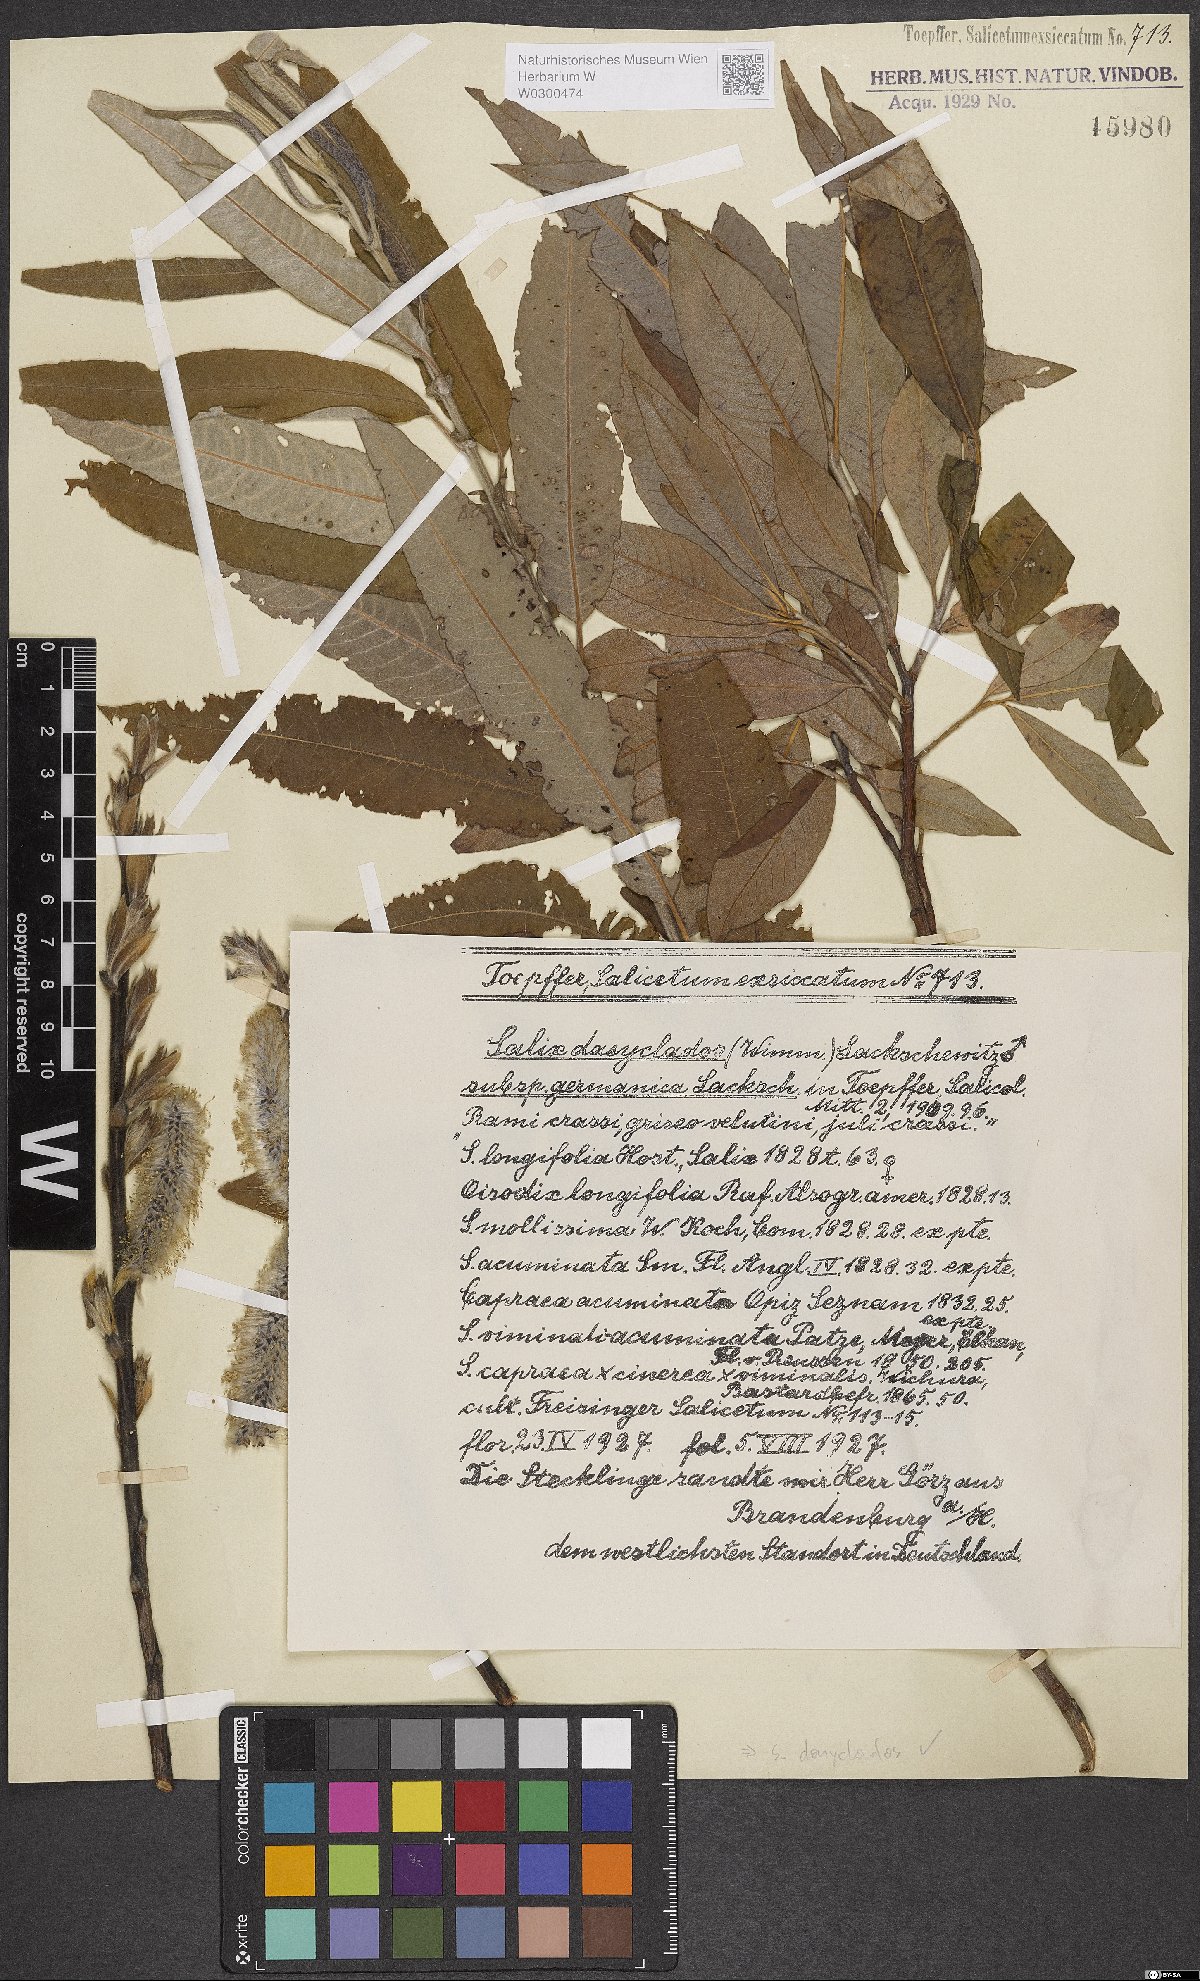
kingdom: Plantae
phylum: Tracheophyta
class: Magnoliopsida
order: Malpighiales
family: Salicaceae
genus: Salix
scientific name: Salix gmelinii
